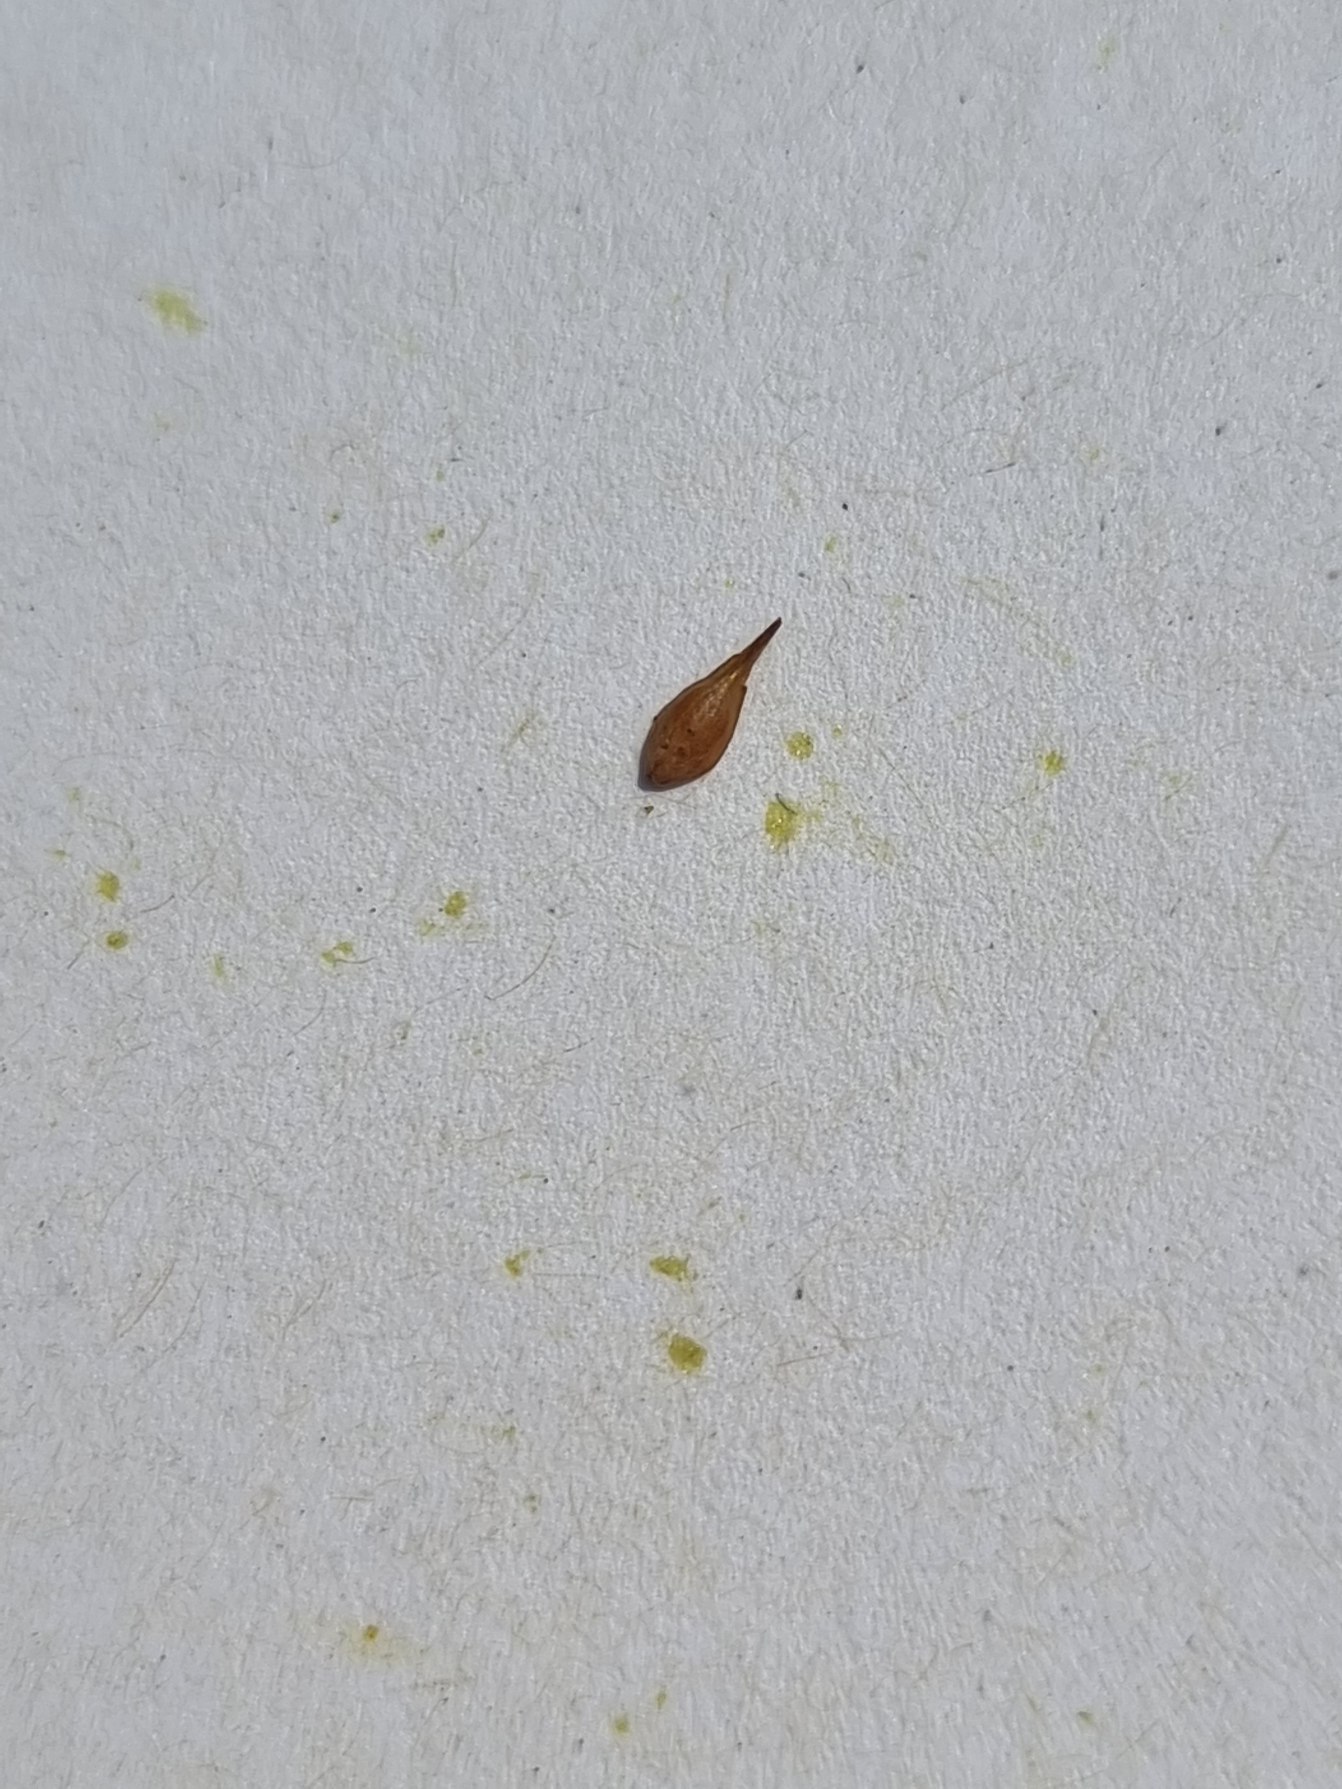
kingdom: Plantae
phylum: Tracheophyta
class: Liliopsida
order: Poales
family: Cyperaceae
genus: Carex
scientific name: Carex leporina
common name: Hare-star
